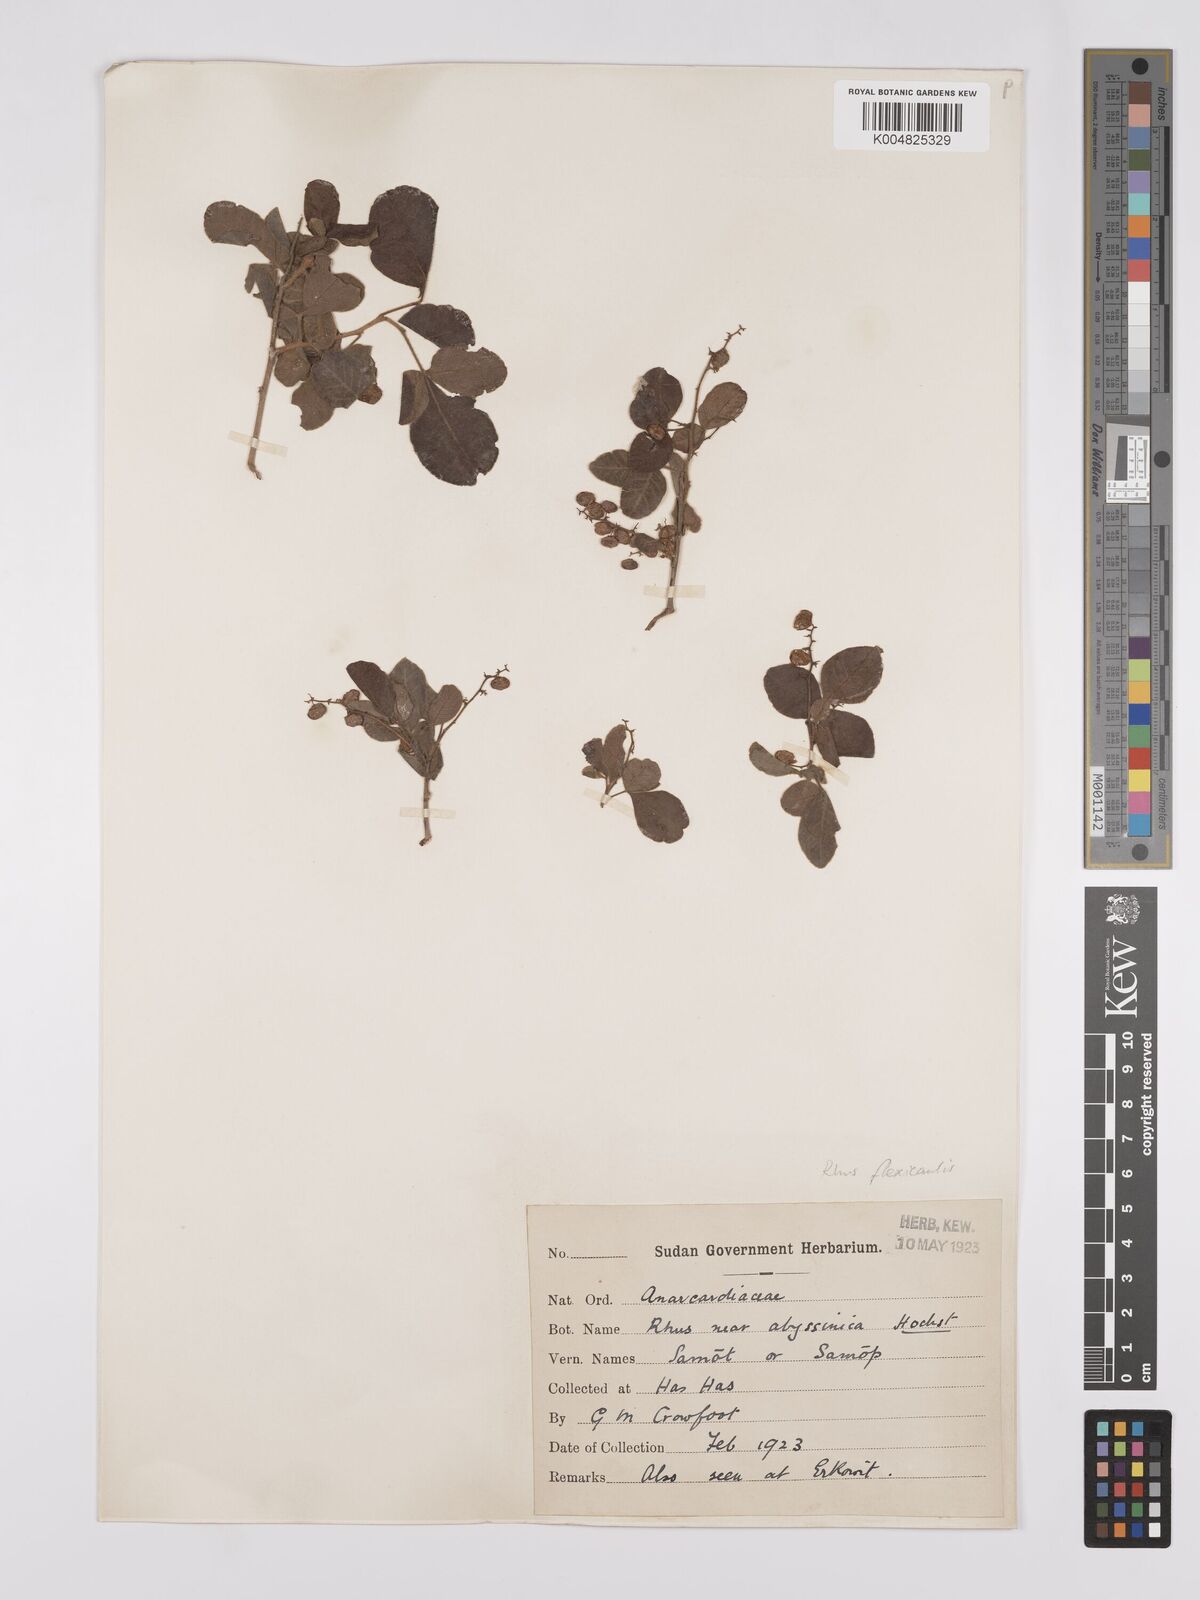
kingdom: Plantae
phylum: Tracheophyta
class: Magnoliopsida
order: Sapindales
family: Anacardiaceae
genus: Searsia
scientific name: Searsia flexicaulis
